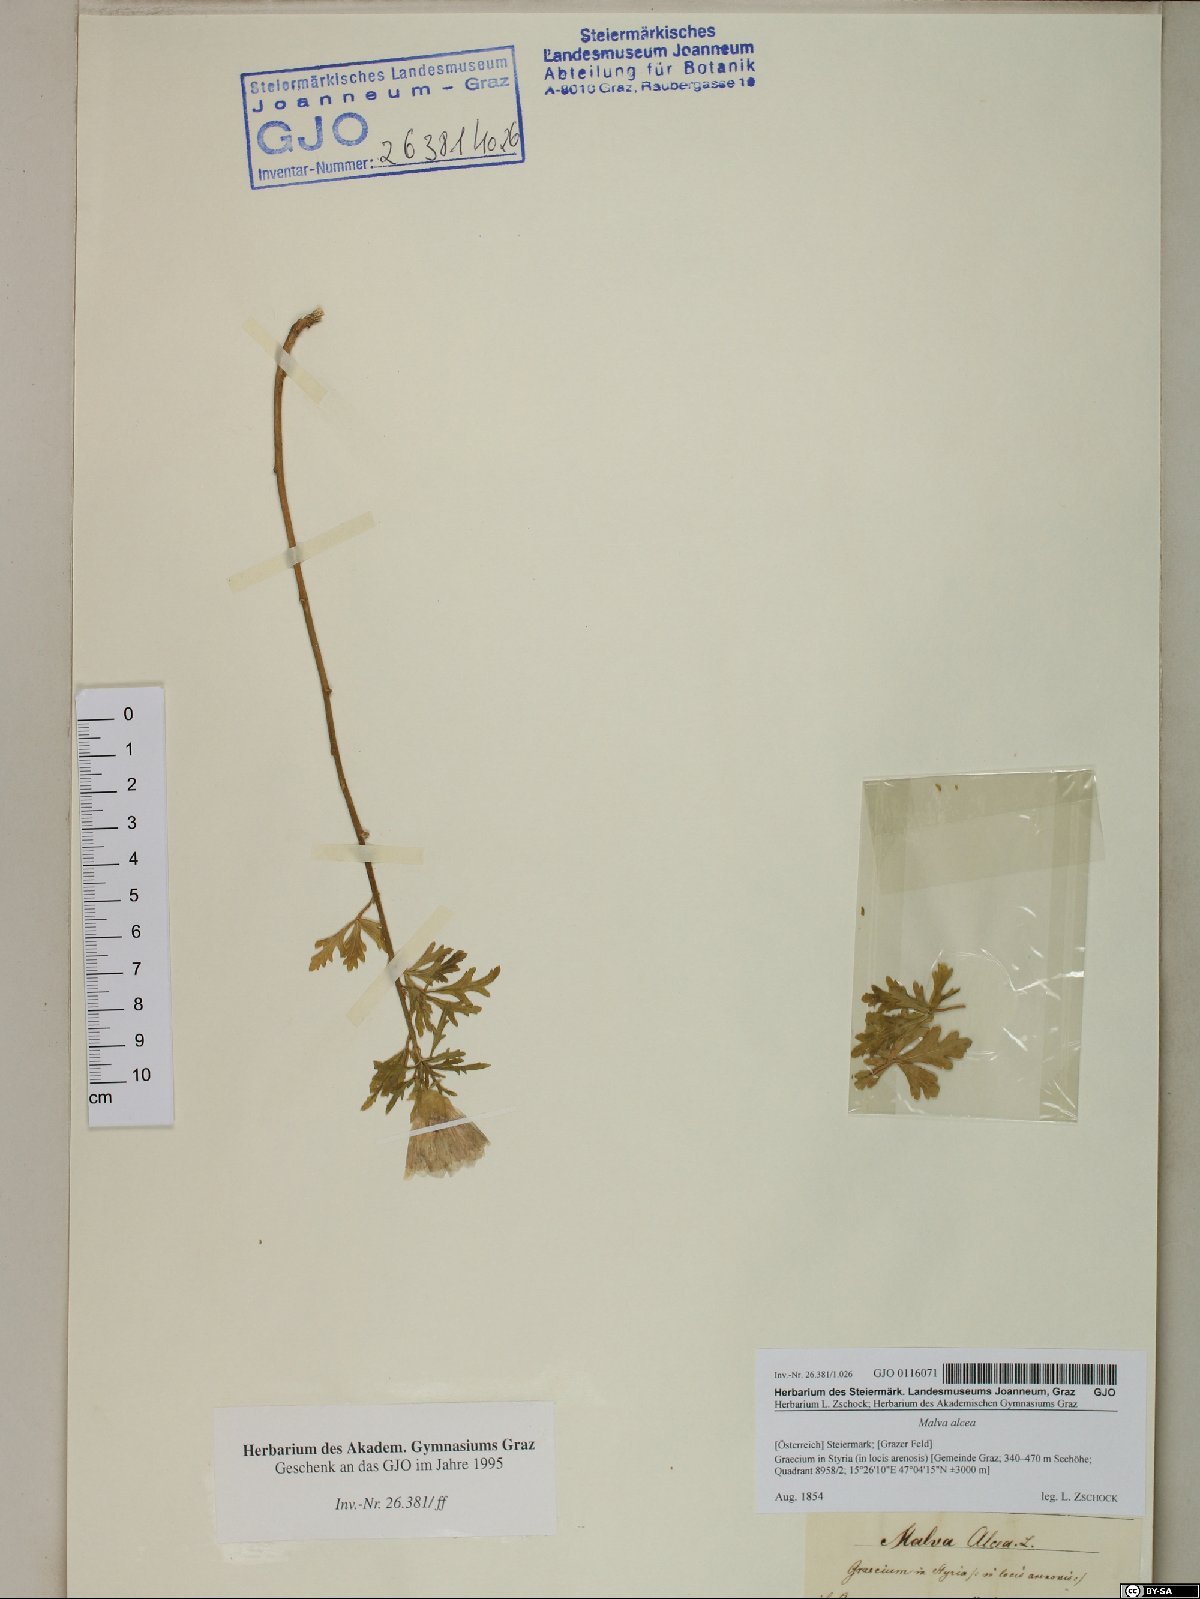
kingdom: Plantae
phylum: Tracheophyta
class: Magnoliopsida
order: Malvales
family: Malvaceae
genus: Malva
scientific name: Malva alcea
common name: Greater musk-mallow
